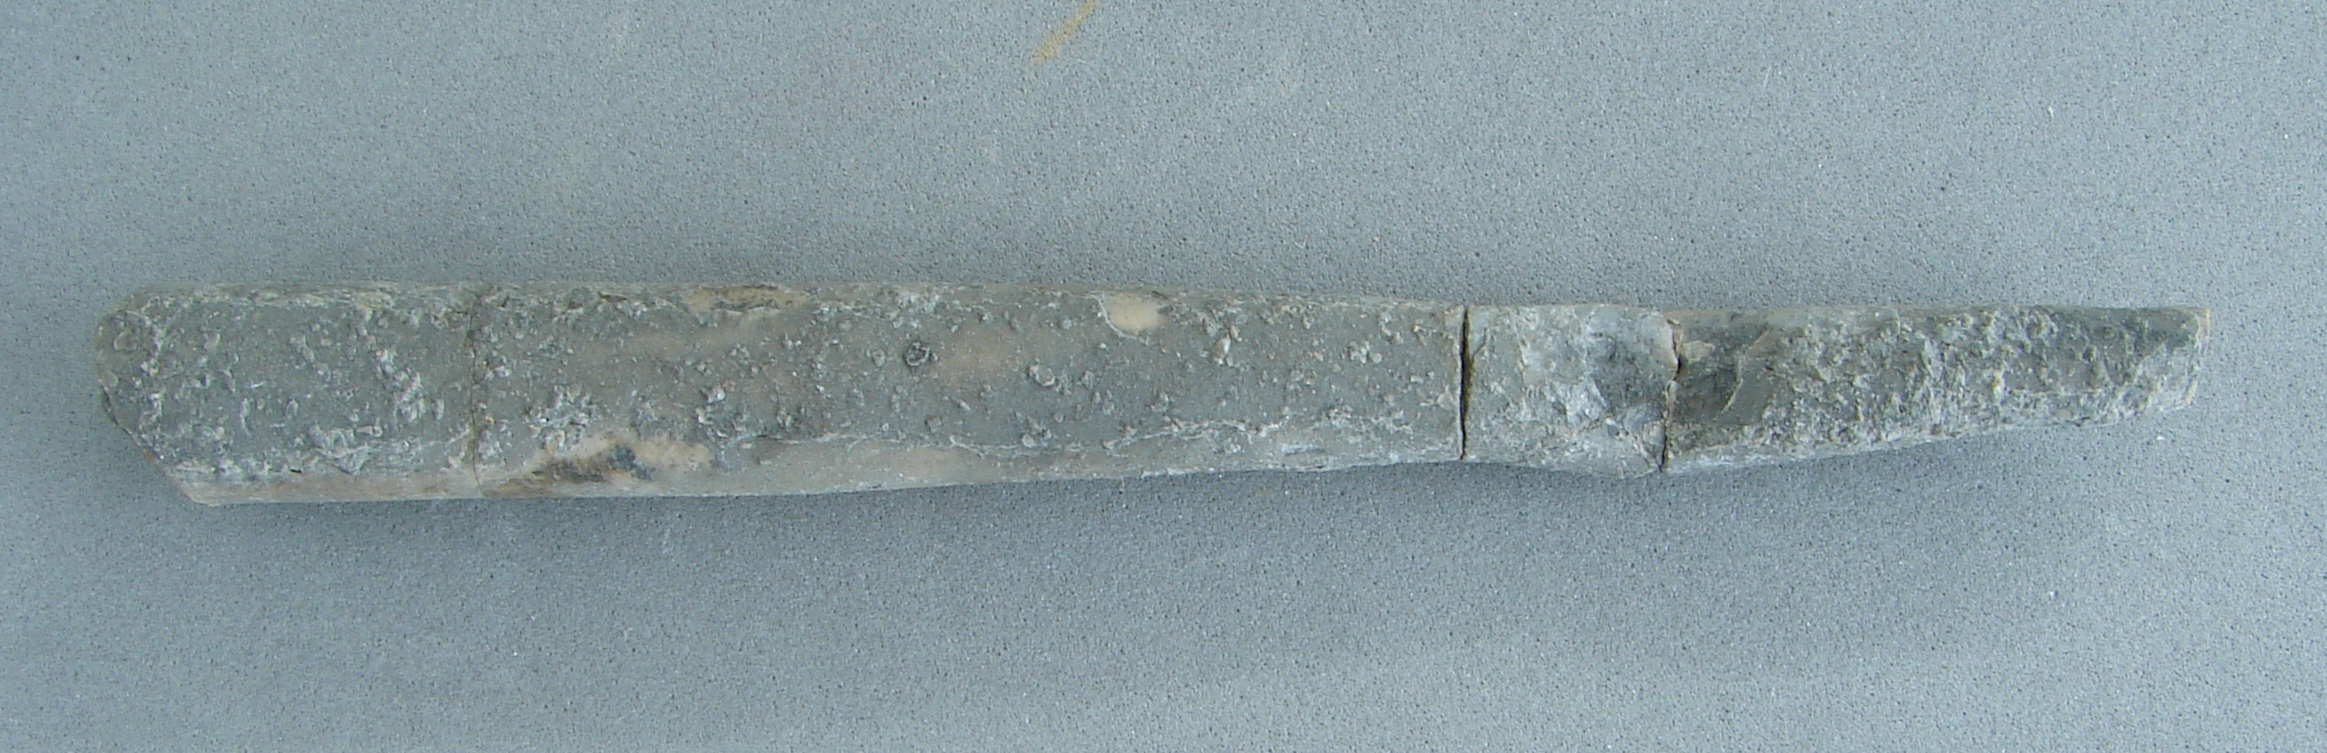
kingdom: Animalia
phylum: Mollusca
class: Cephalopoda
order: Belemnitida
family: Megateuthididae
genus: Acrocoelites
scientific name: Acrocoelites riegrafi
